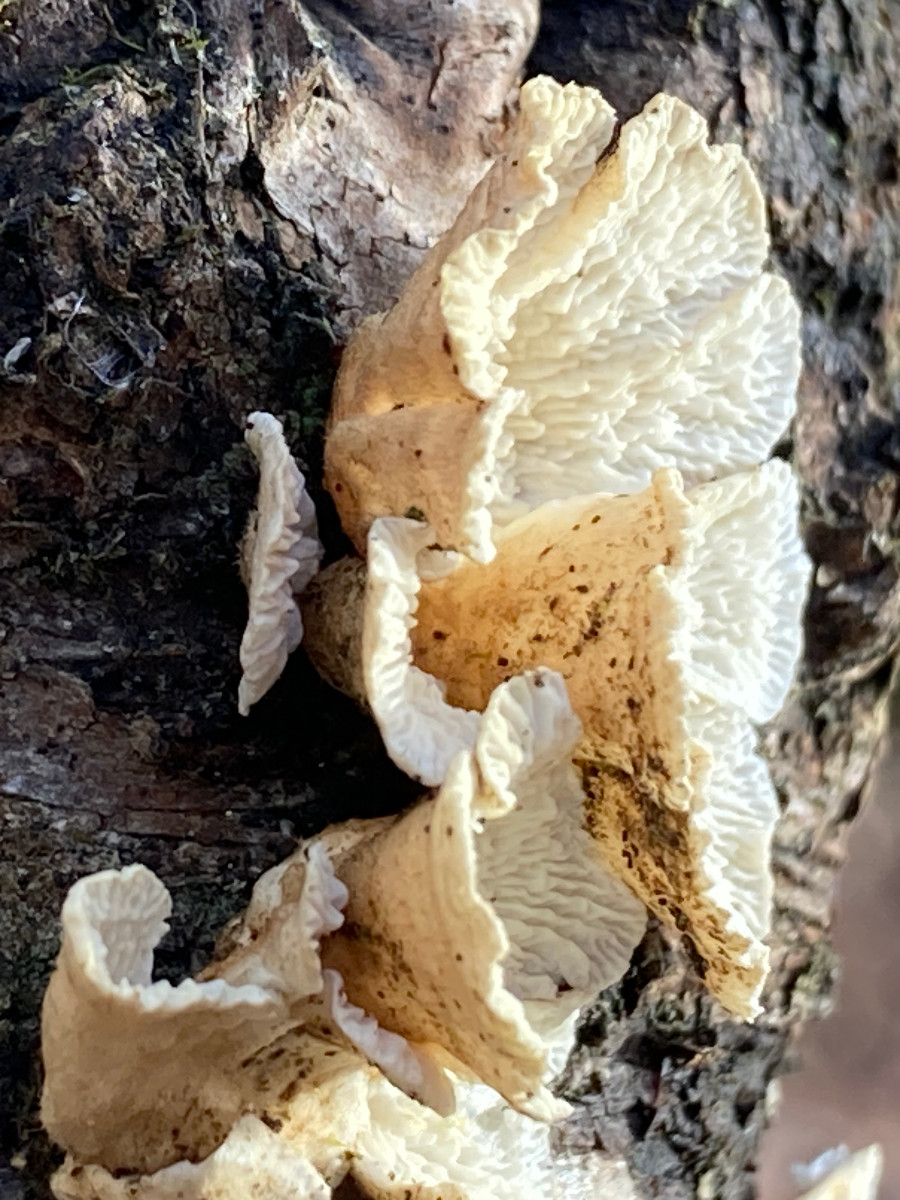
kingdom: Fungi
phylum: Basidiomycota
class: Agaricomycetes
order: Amylocorticiales
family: Amylocorticiaceae
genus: Plicaturopsis
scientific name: Plicaturopsis crispa
